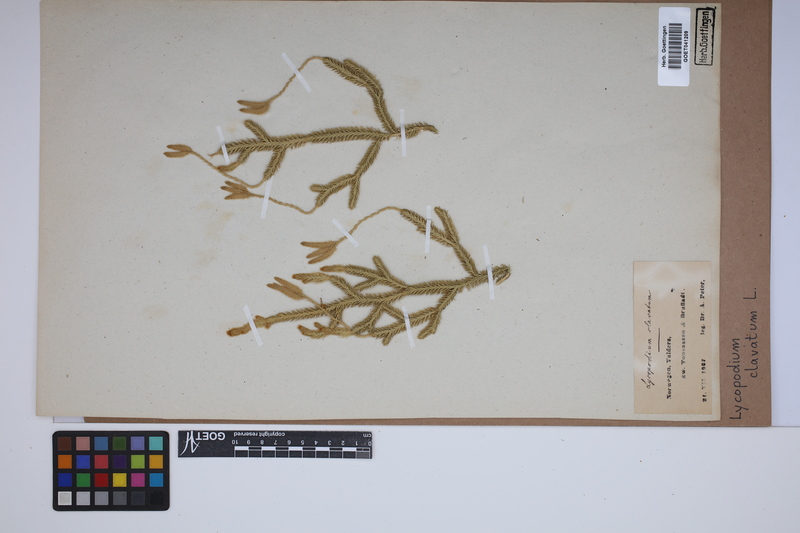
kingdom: Plantae
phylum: Tracheophyta
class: Lycopodiopsida
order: Lycopodiales
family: Lycopodiaceae
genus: Lycopodium
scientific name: Lycopodium clavatum
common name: Stag's-horn clubmoss
